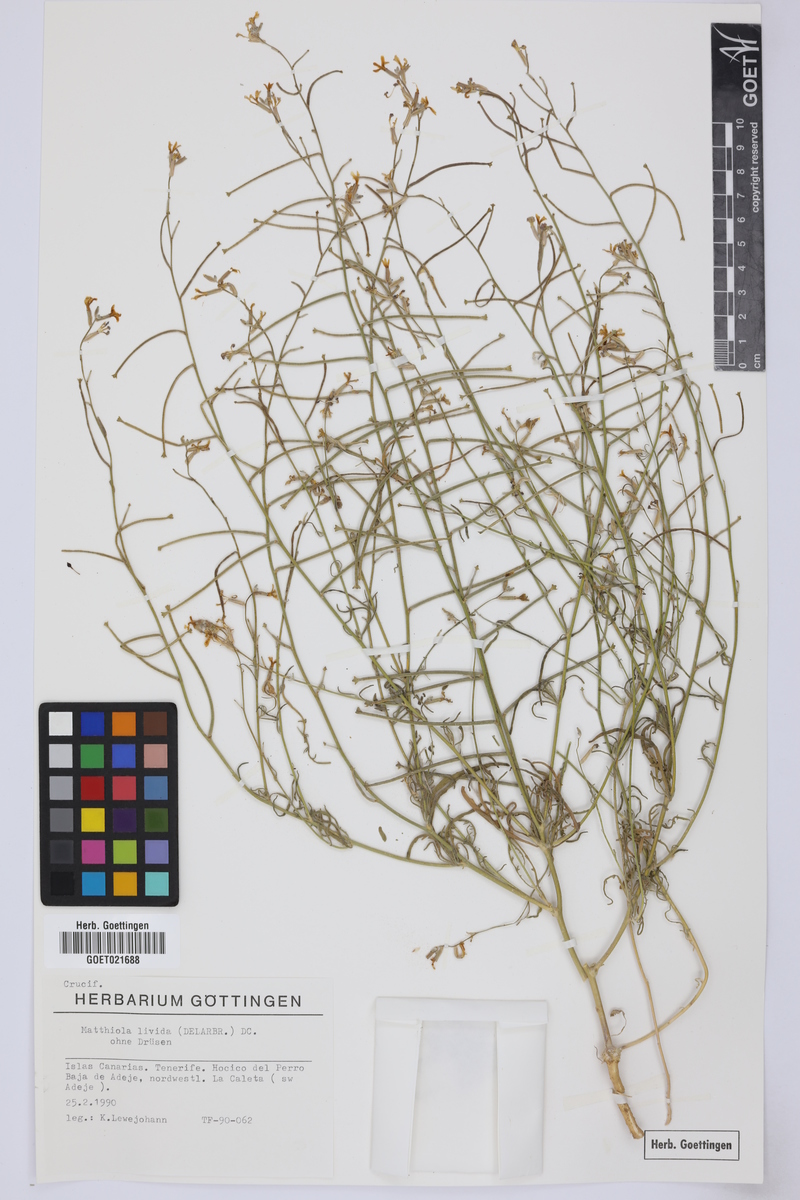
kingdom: Plantae
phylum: Tracheophyta
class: Magnoliopsida
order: Brassicales
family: Brassicaceae
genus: Matthiola
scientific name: Matthiola longipetala
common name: Night-scented stock
